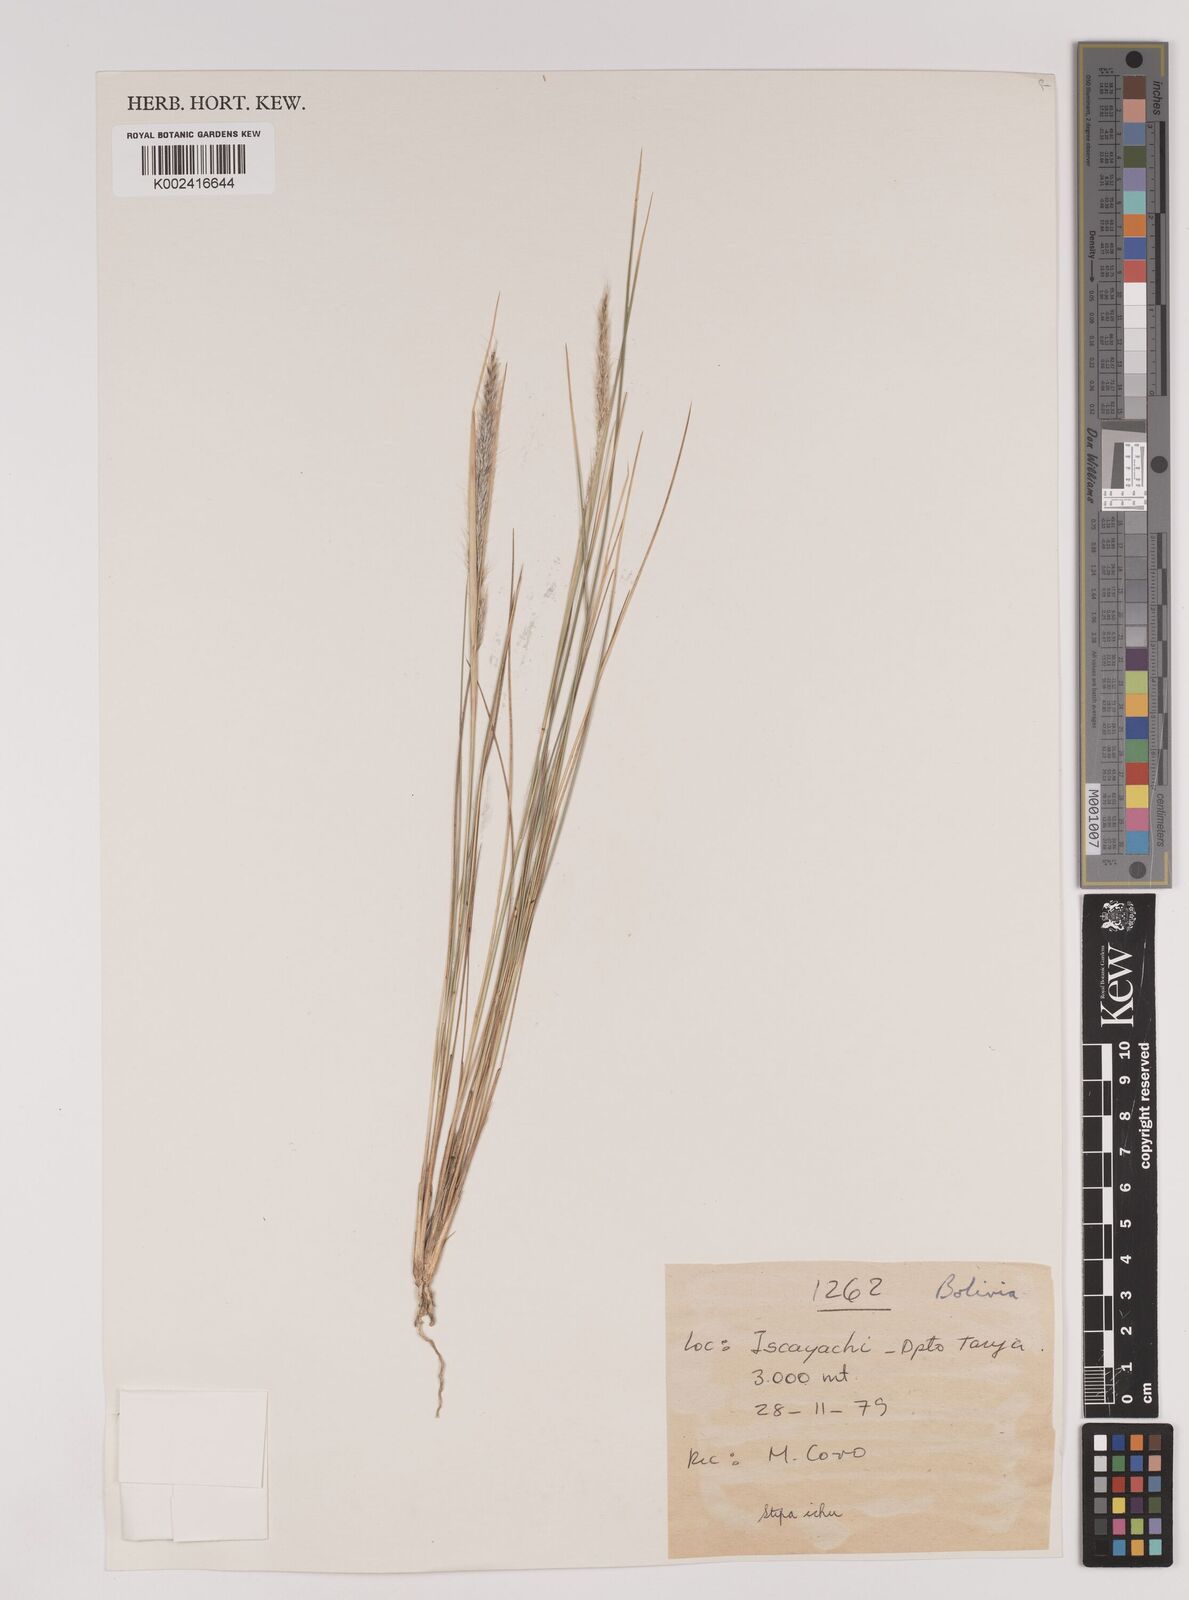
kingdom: Plantae
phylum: Tracheophyta
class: Liliopsida
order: Poales
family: Poaceae
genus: Jarava
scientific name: Jarava leptostachya
